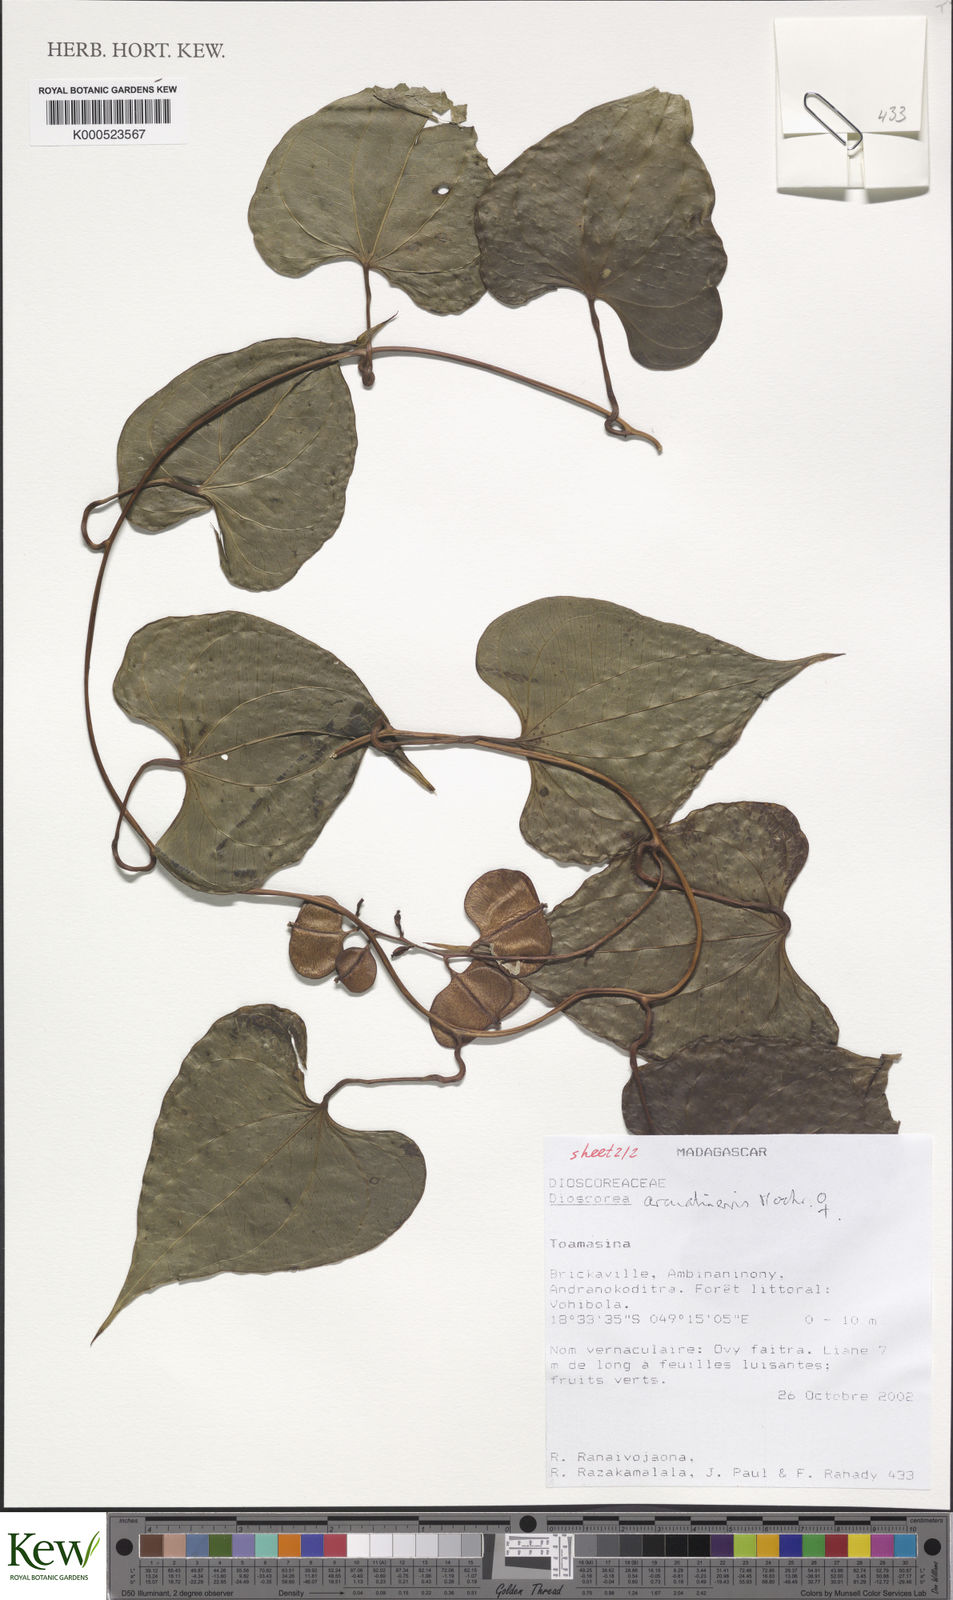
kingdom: Plantae
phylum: Tracheophyta
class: Liliopsida
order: Dioscoreales
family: Dioscoreaceae
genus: Dioscorea
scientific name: Dioscorea arcuatinervis
